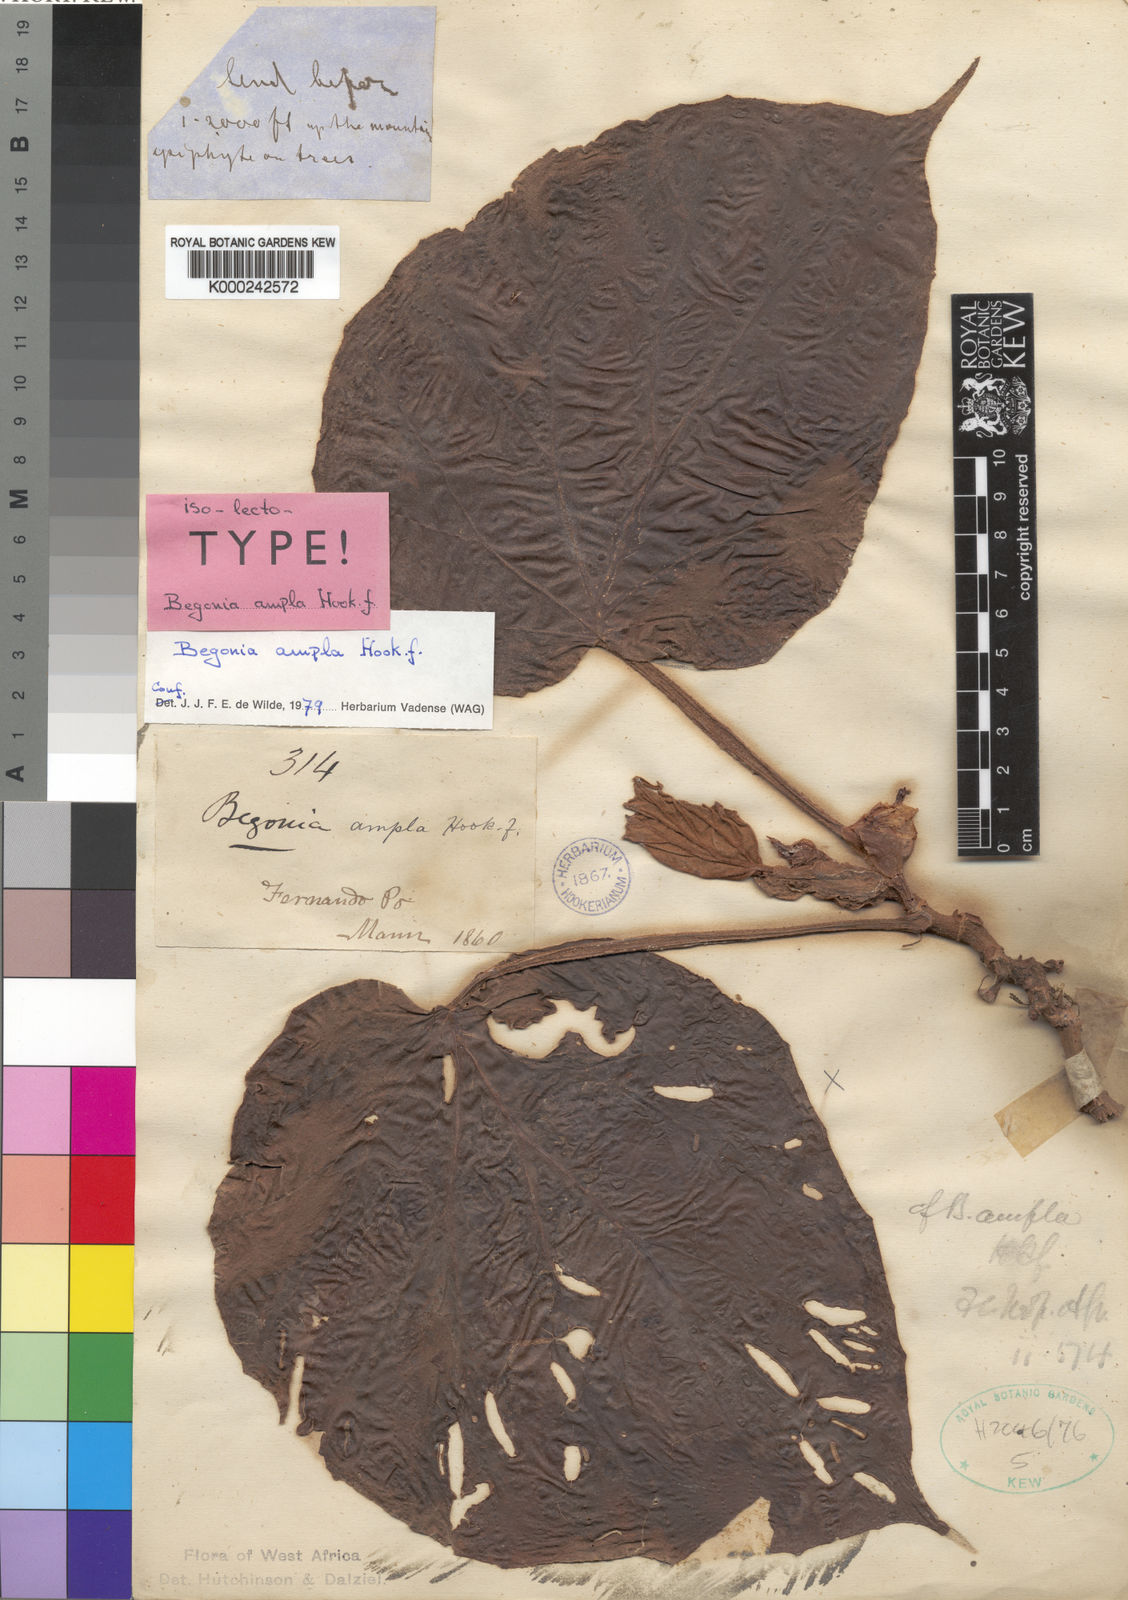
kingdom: Plantae
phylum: Tracheophyta
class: Magnoliopsida
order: Cucurbitales
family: Begoniaceae
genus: Begonia
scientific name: Begonia ampla
